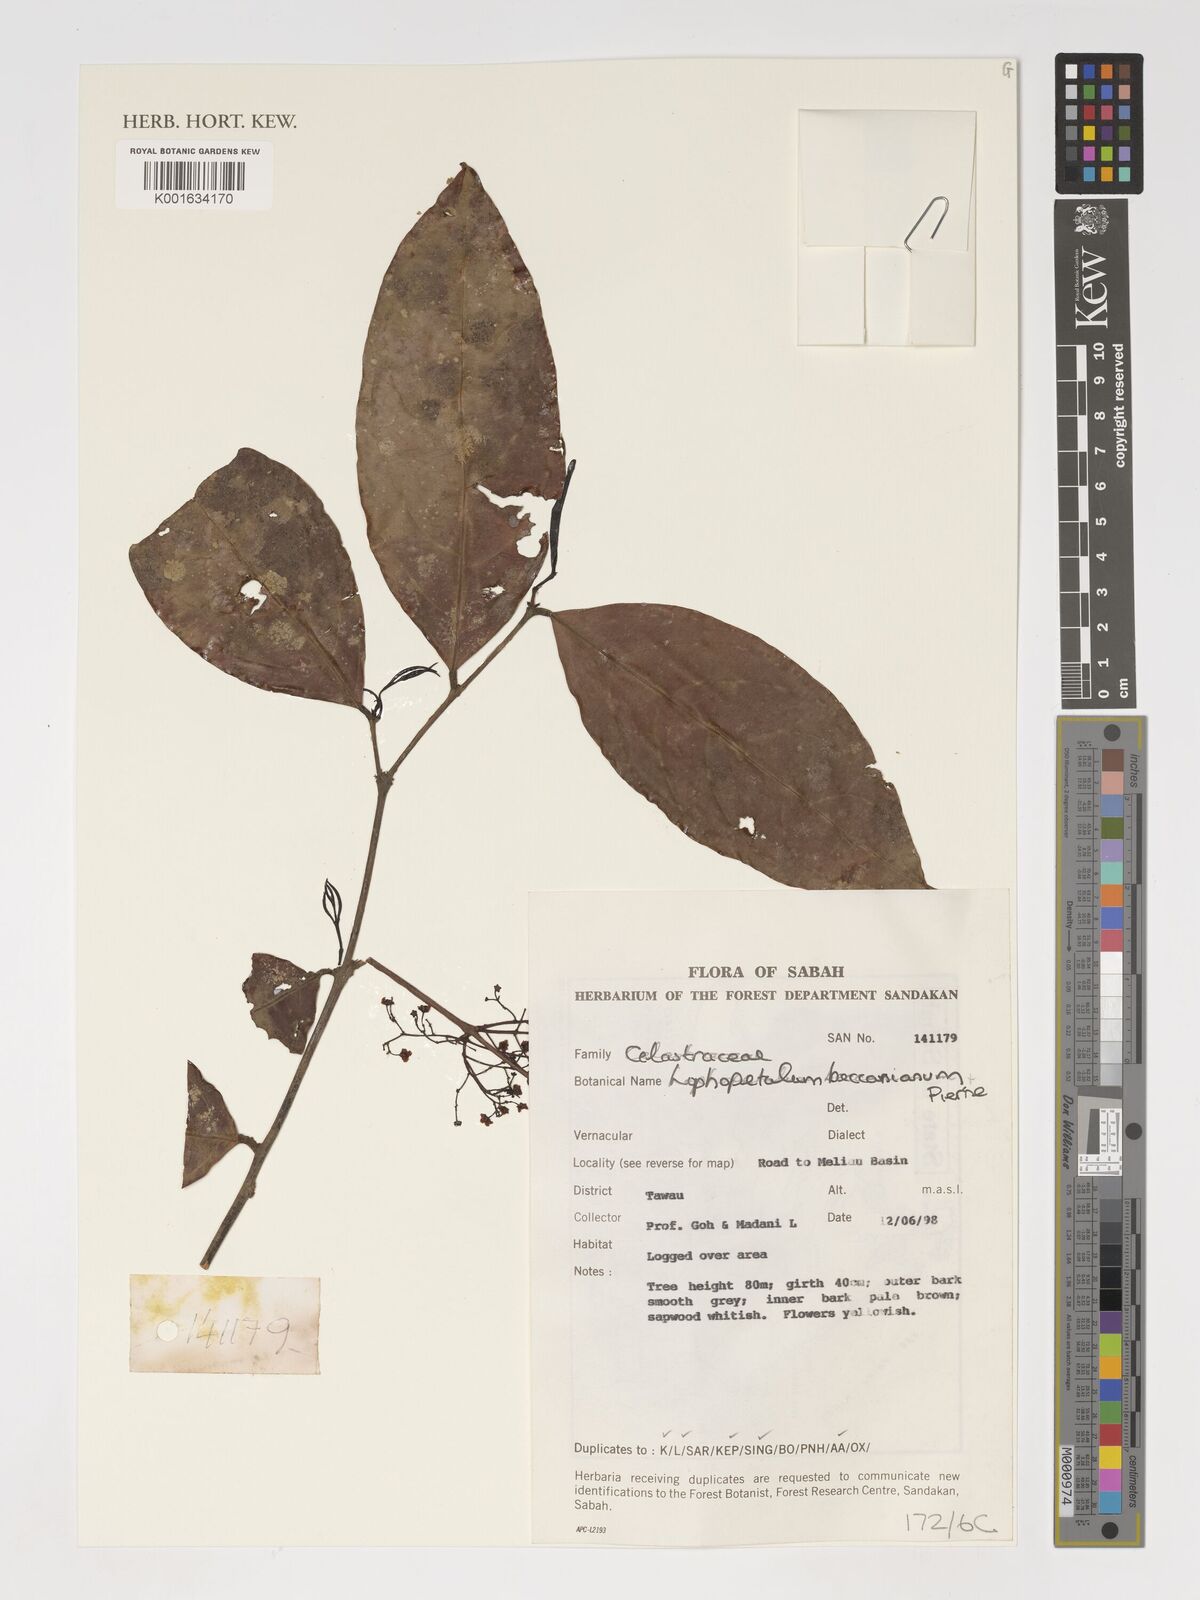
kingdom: Plantae
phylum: Tracheophyta
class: Magnoliopsida
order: Celastrales
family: Celastraceae
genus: Lophopetalum
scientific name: Lophopetalum beccarianum
